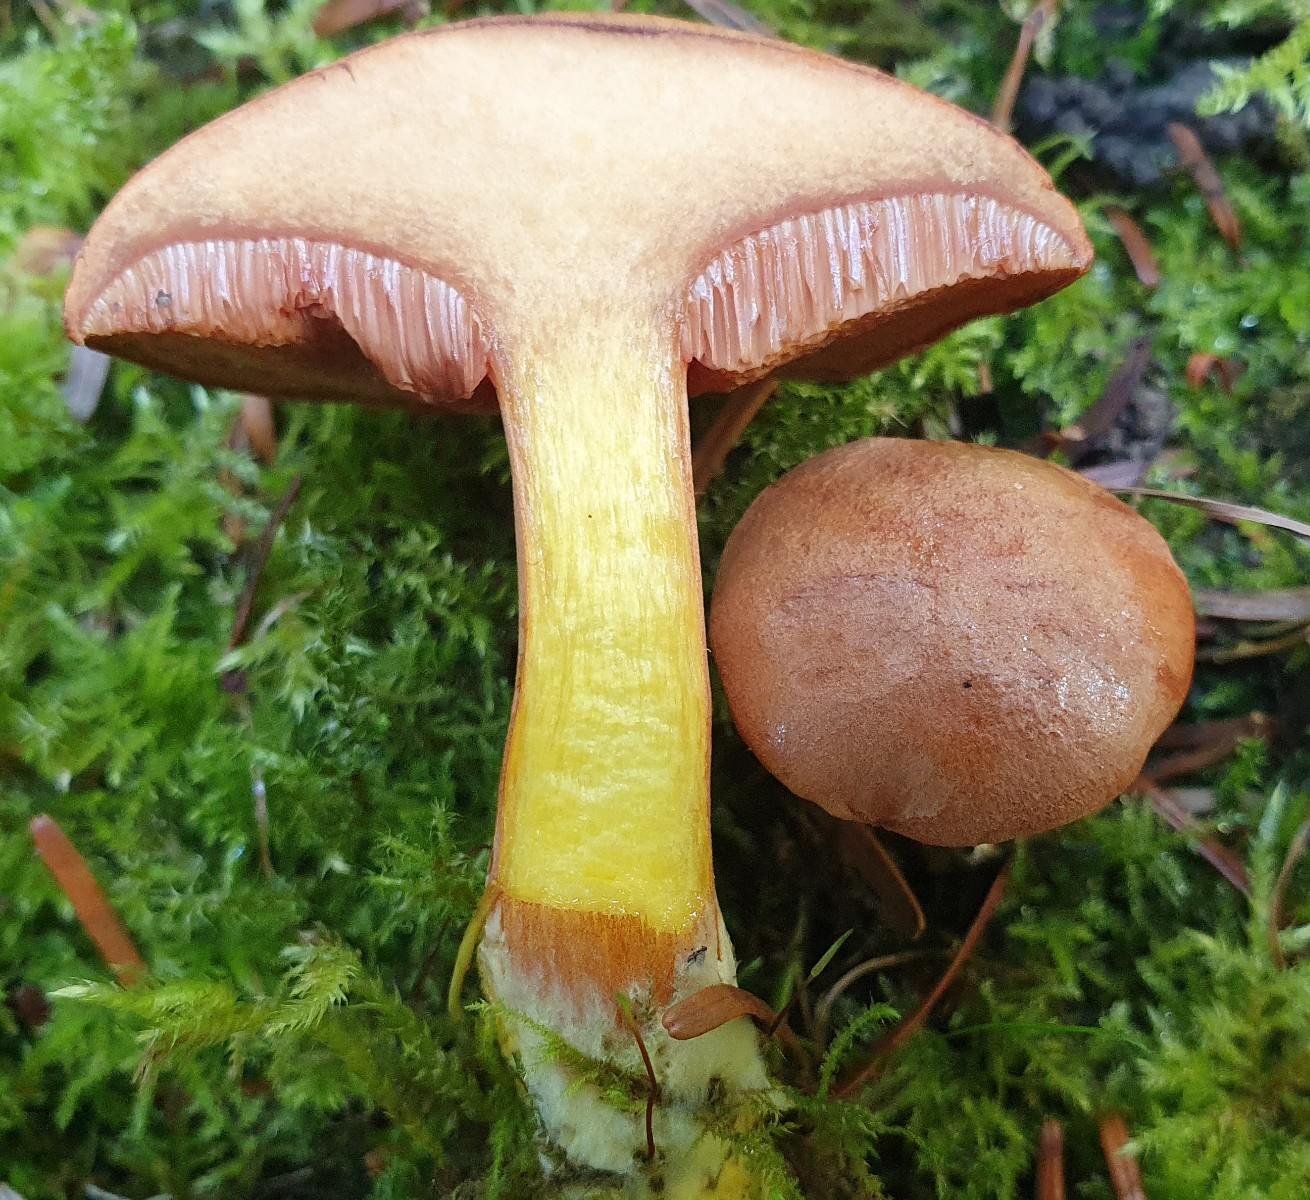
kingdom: Fungi
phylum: Basidiomycota
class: Agaricomycetes
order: Boletales
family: Boletaceae
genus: Chalciporus
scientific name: Chalciporus piperatus
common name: peberrørhat
